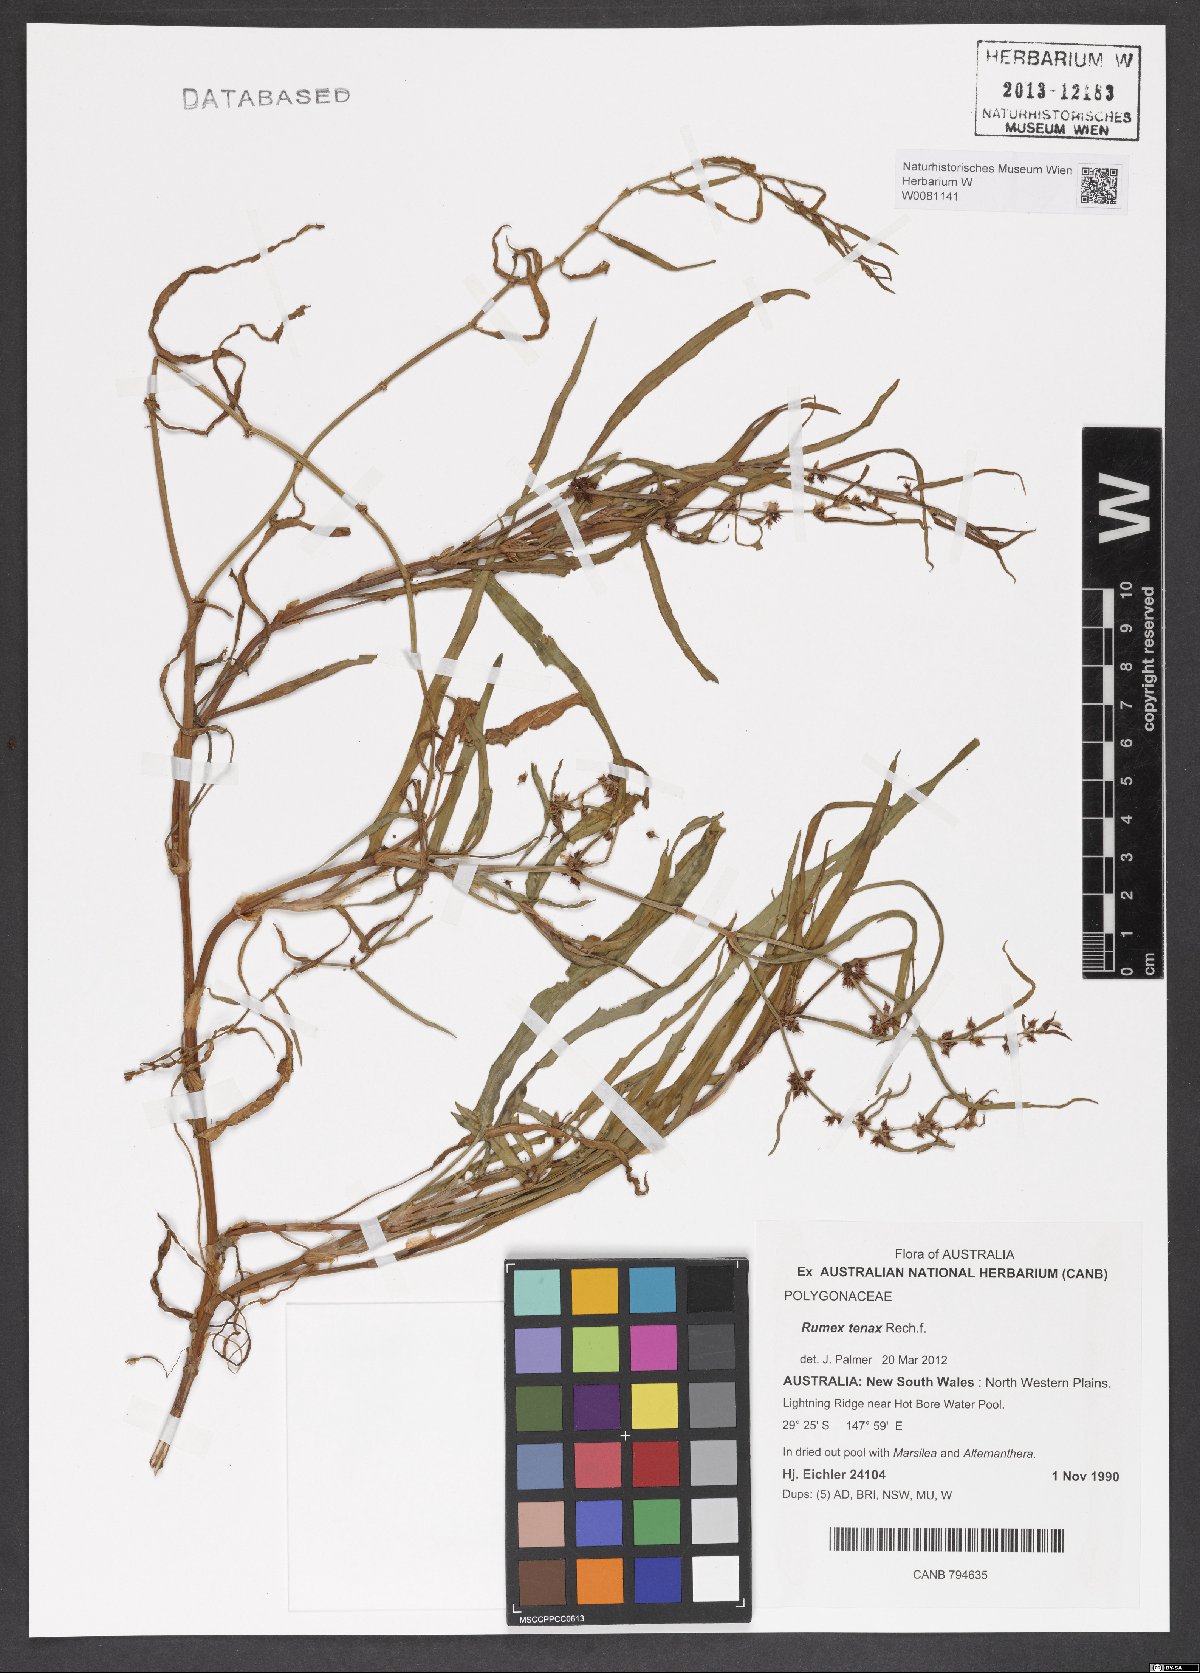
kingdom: Plantae
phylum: Tracheophyta
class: Magnoliopsida
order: Caryophyllales
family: Polygonaceae
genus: Rumex
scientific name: Rumex tenax
